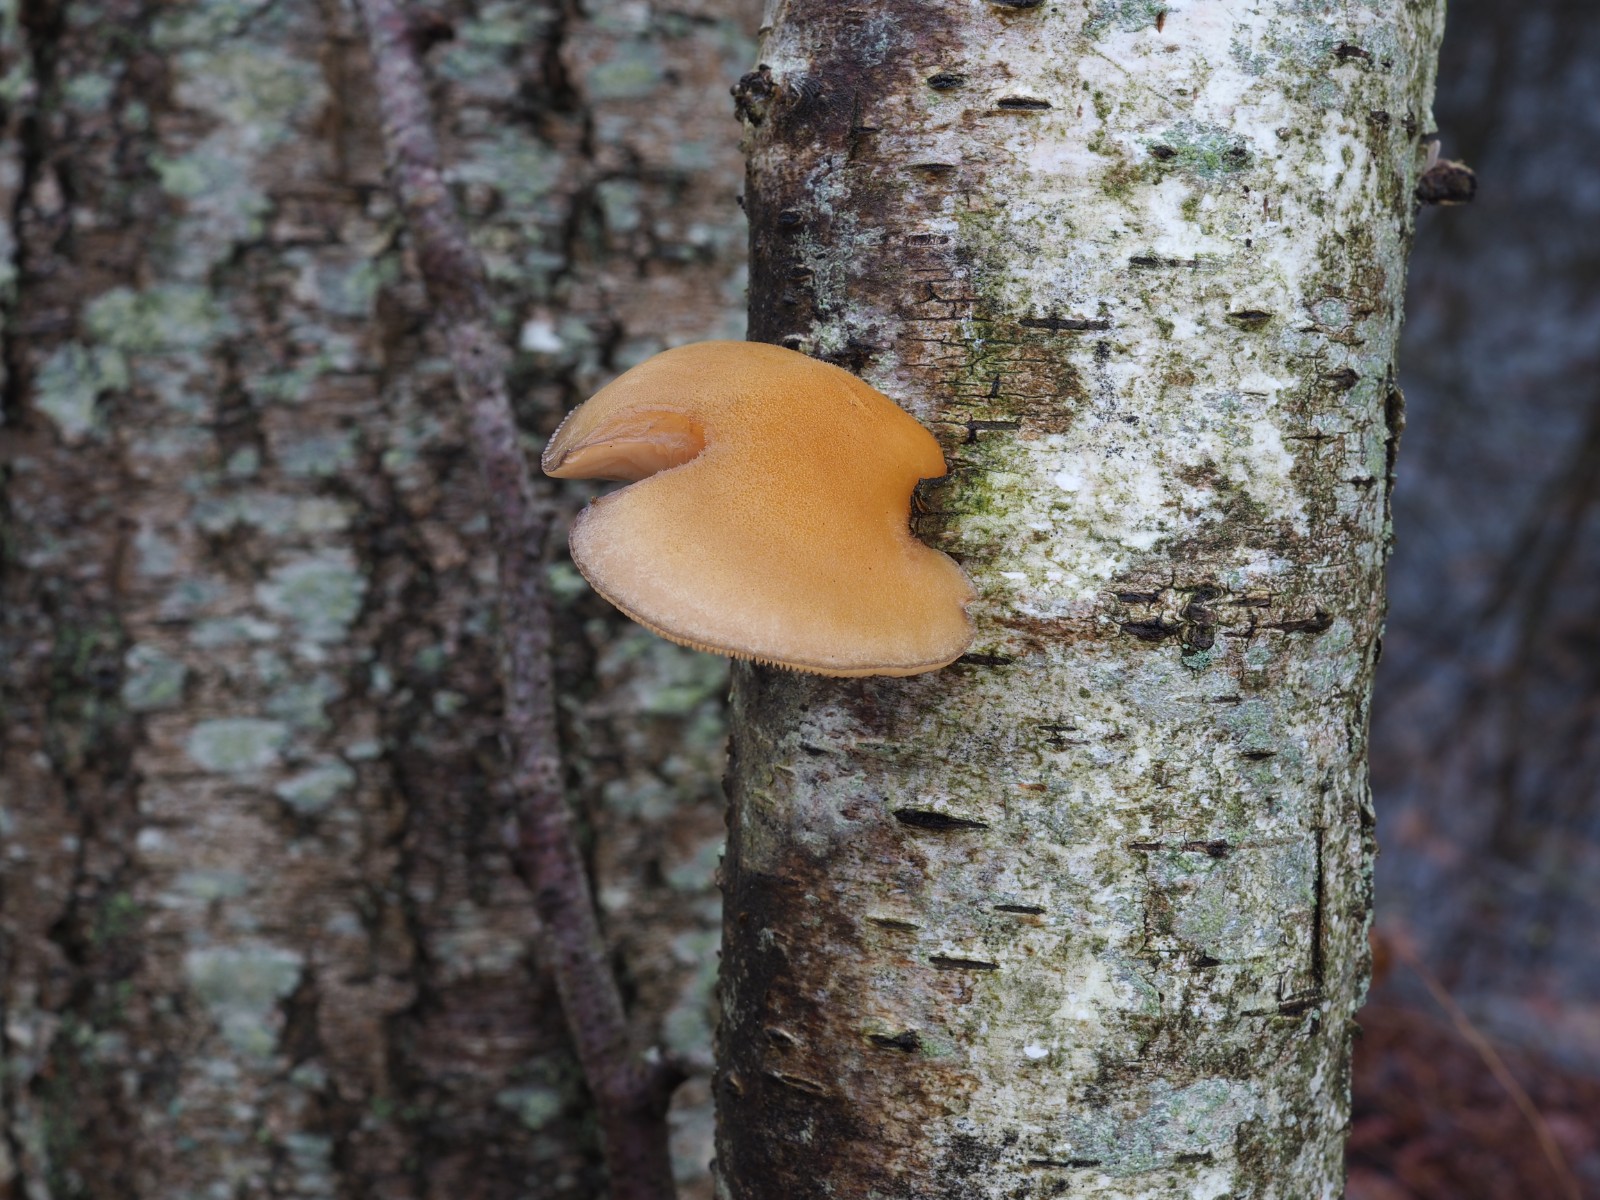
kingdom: Fungi
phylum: Basidiomycota
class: Agaricomycetes
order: Agaricales
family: Sarcomyxaceae
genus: Sarcomyxa
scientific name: Sarcomyxa serotina
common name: gummihat
